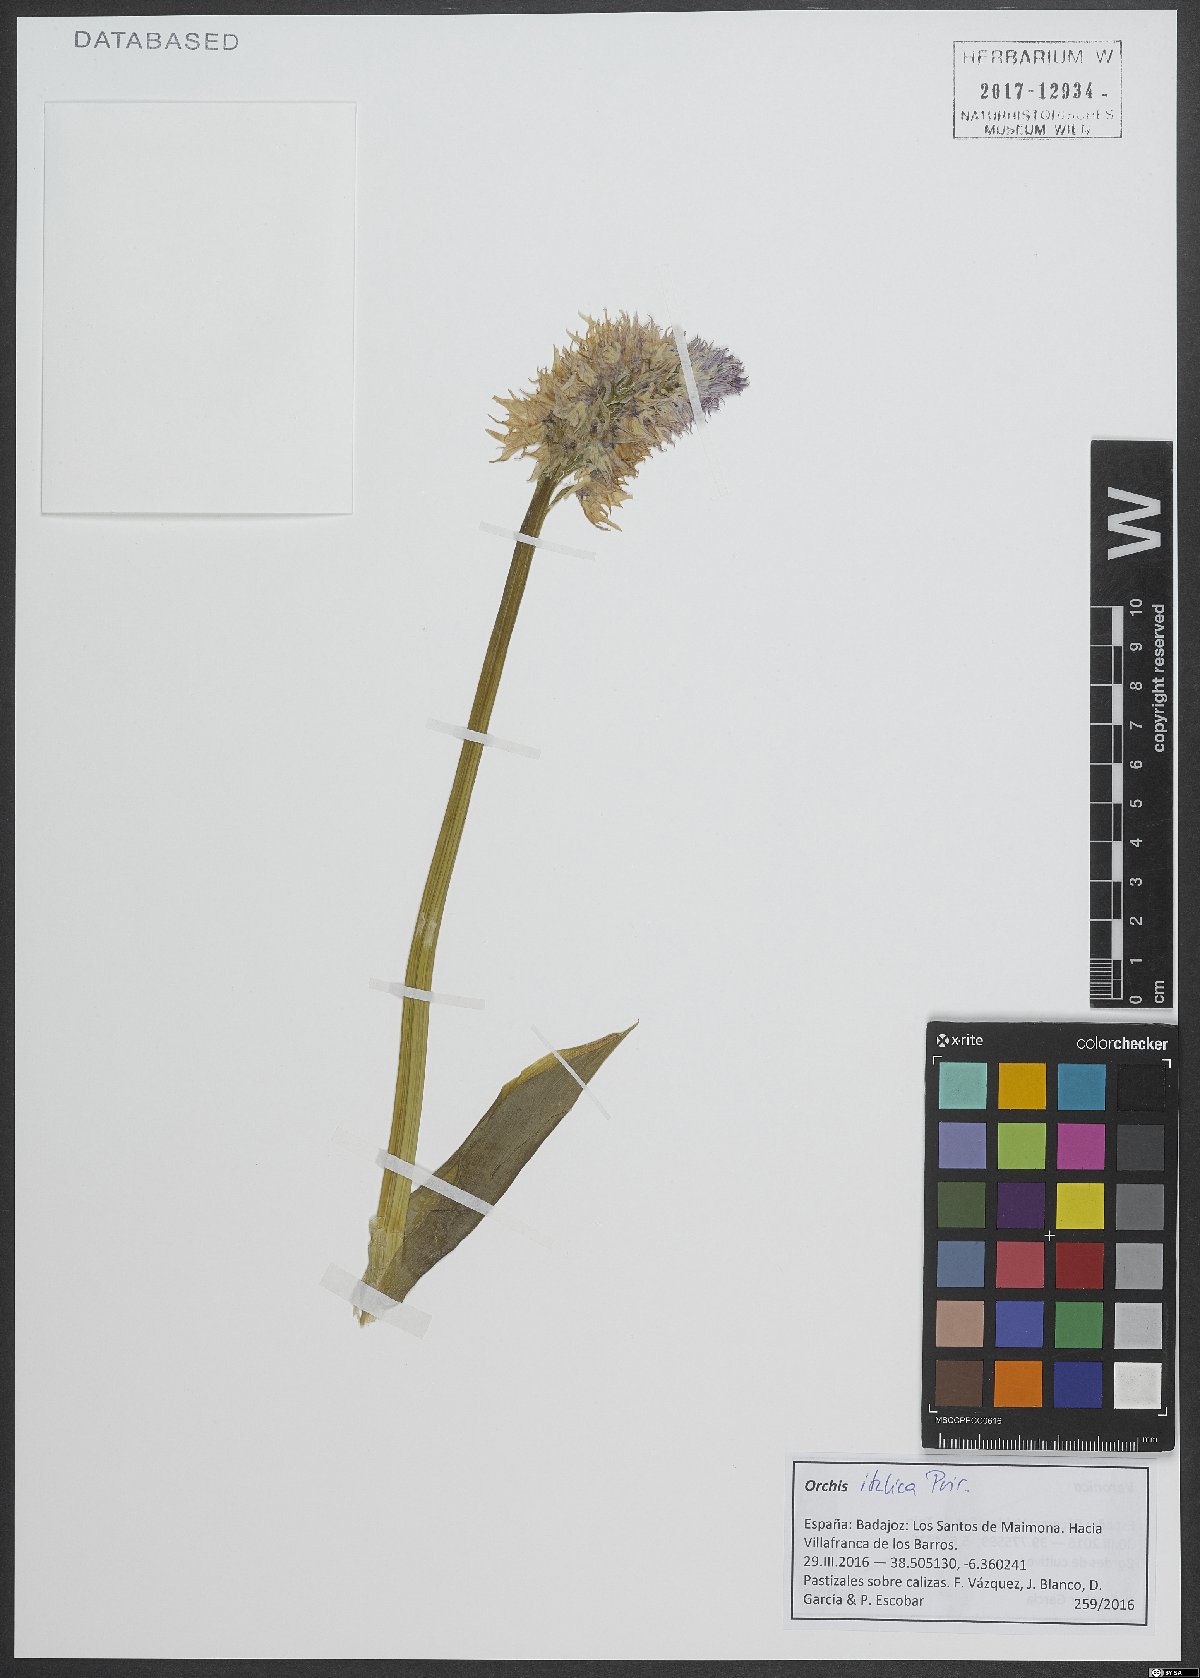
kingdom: Plantae
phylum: Tracheophyta
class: Liliopsida
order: Asparagales
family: Orchidaceae
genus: Orchis
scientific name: Orchis italica
